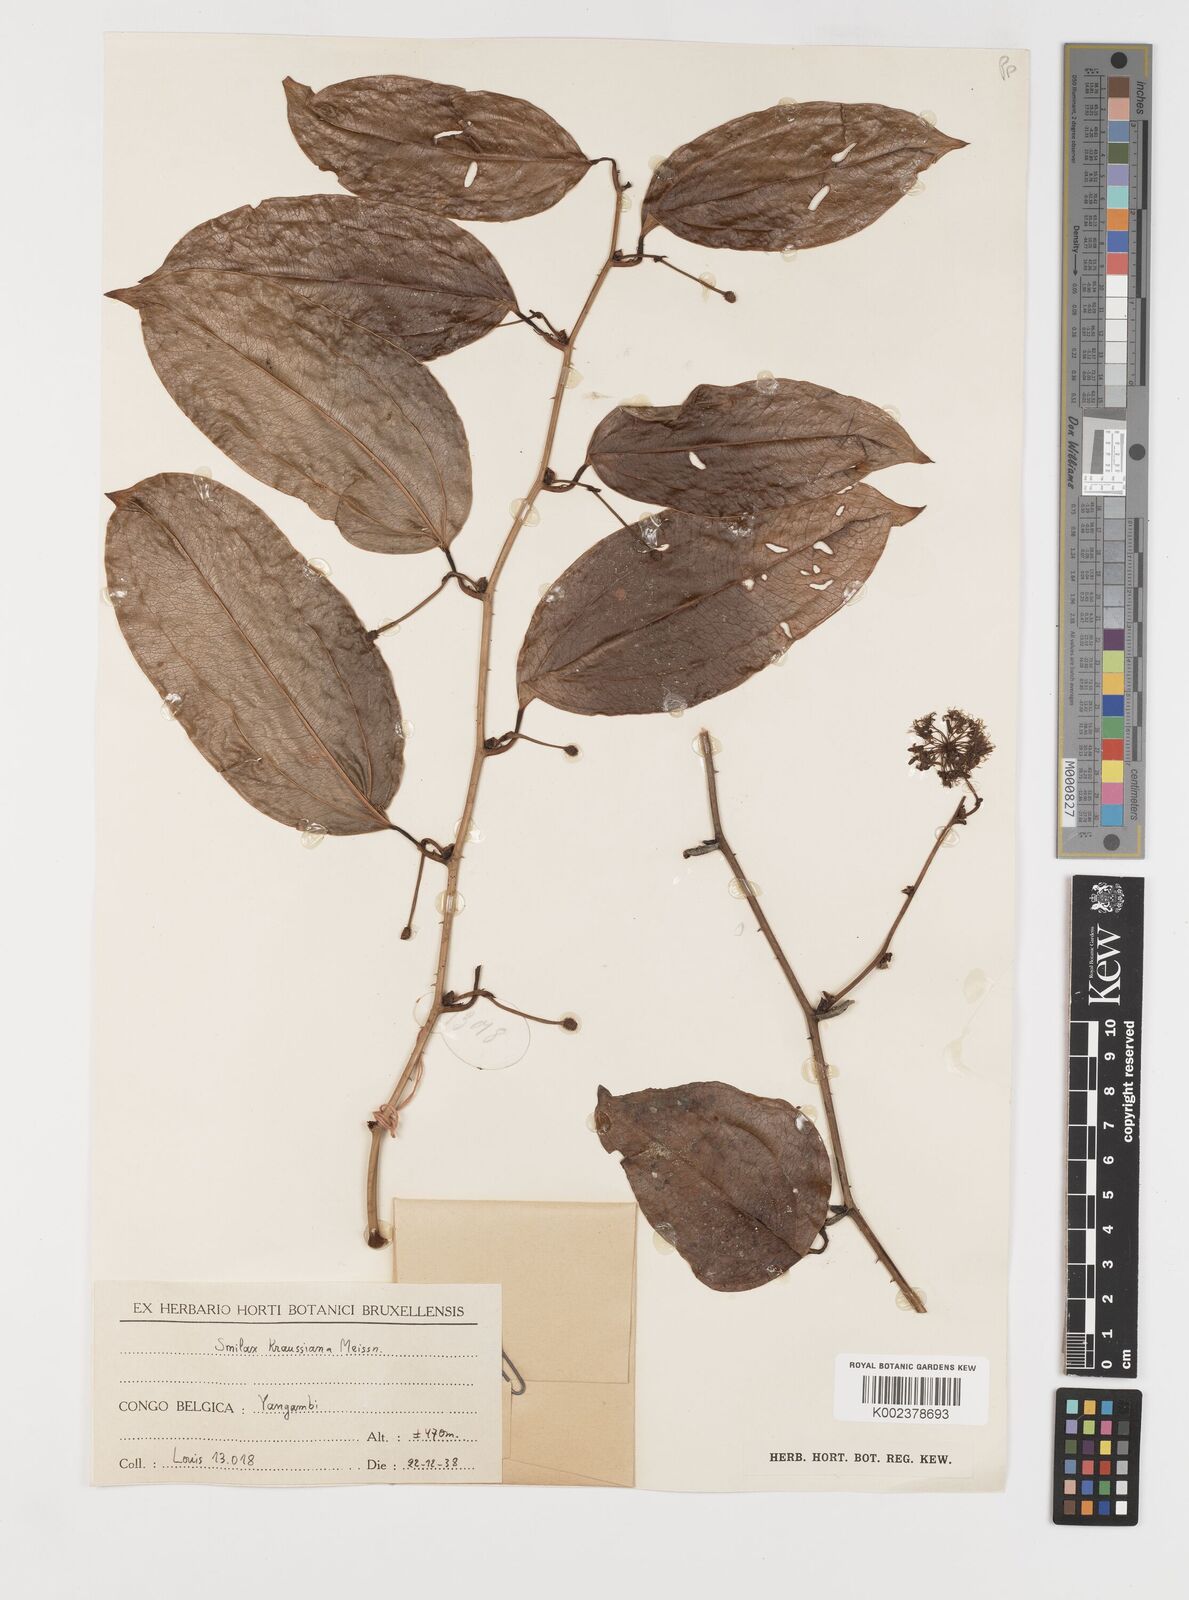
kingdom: Plantae
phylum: Tracheophyta
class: Liliopsida
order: Liliales
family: Smilacaceae
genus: Smilax
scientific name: Smilax anceps
